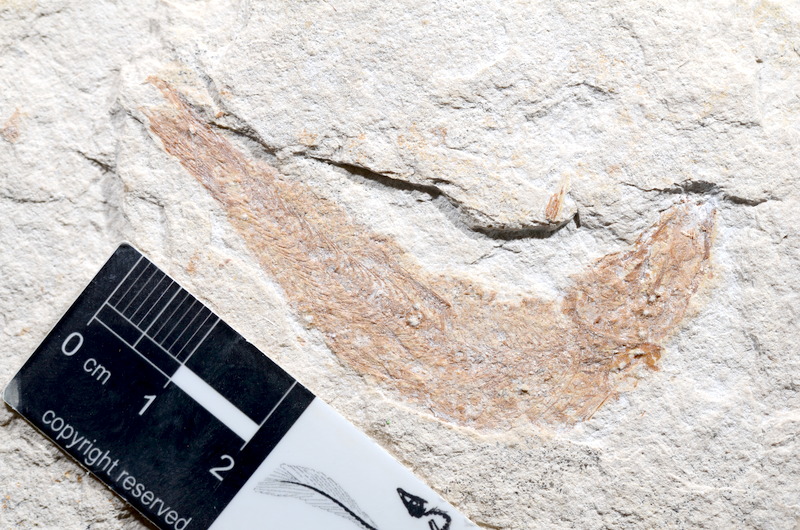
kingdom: Animalia
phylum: Chordata
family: Ascalaboidae
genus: Tharsis
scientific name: Tharsis dubius
